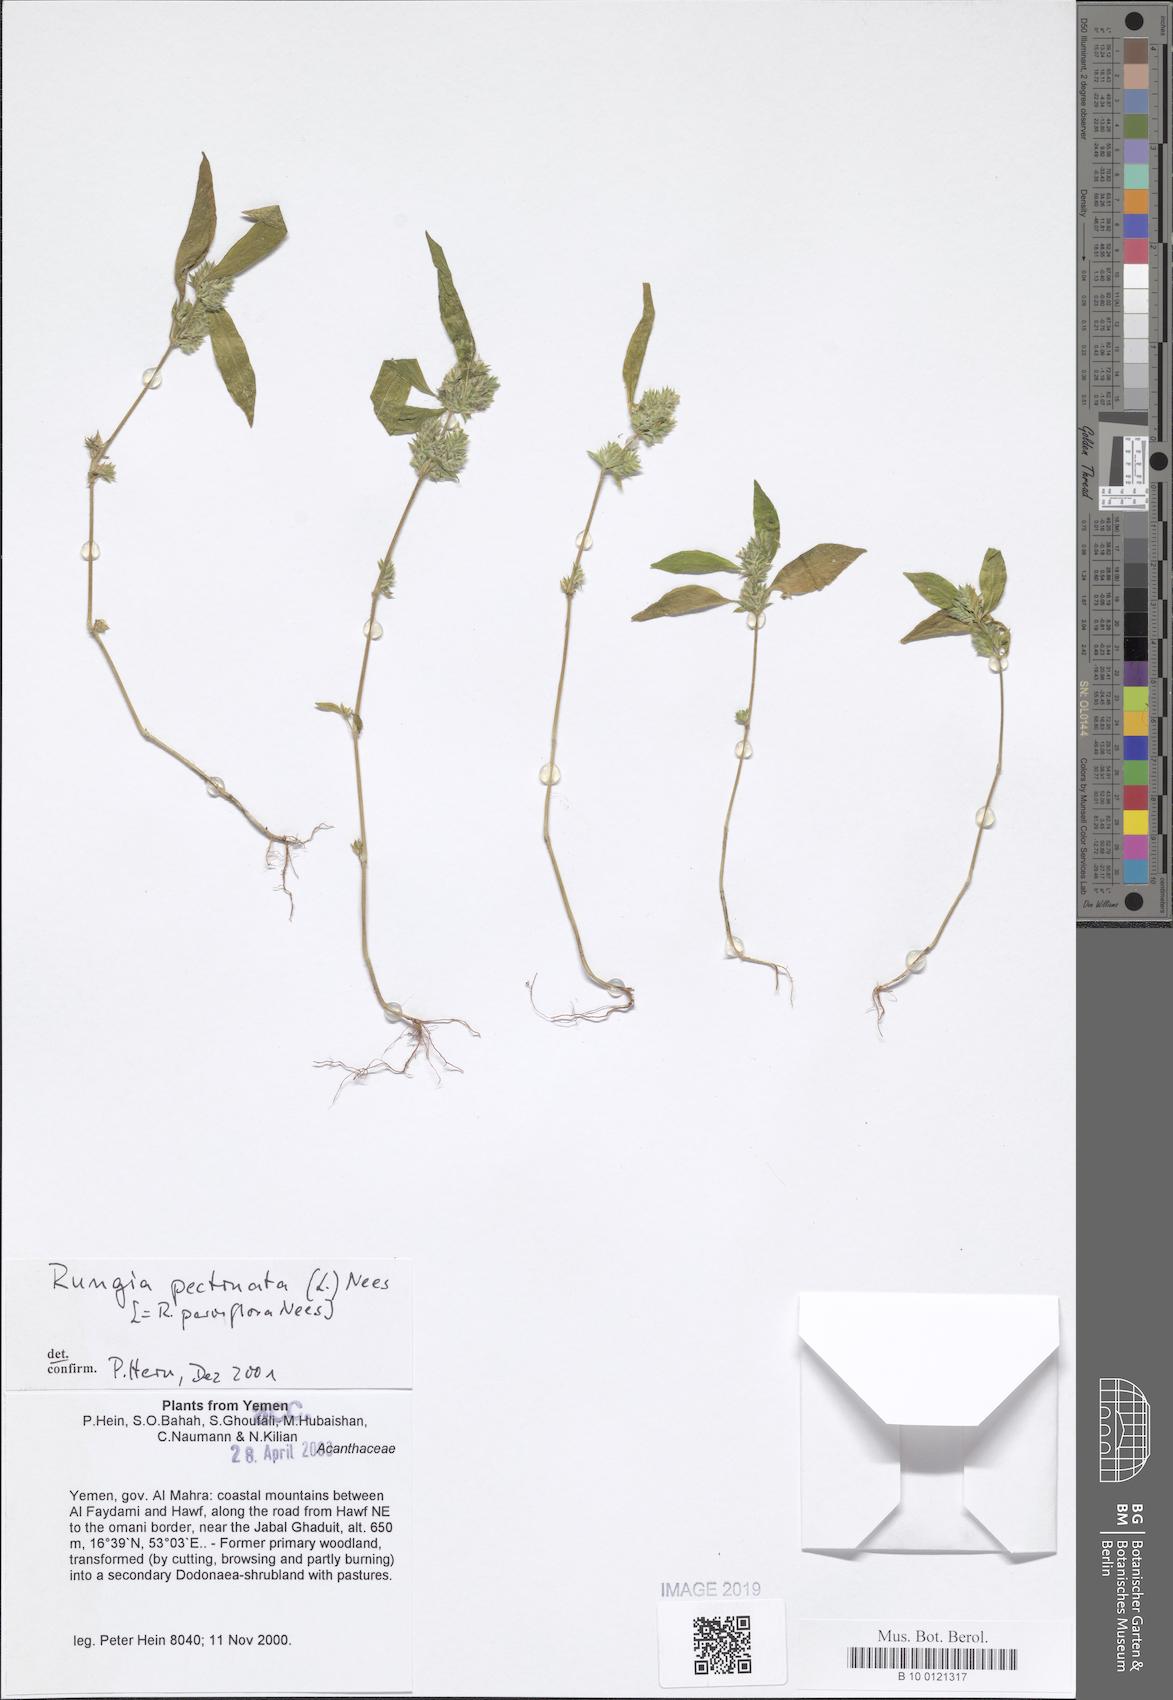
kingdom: Plantae
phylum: Tracheophyta
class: Magnoliopsida
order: Lamiales
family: Acanthaceae
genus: Rungia
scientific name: Rungia pectinata
